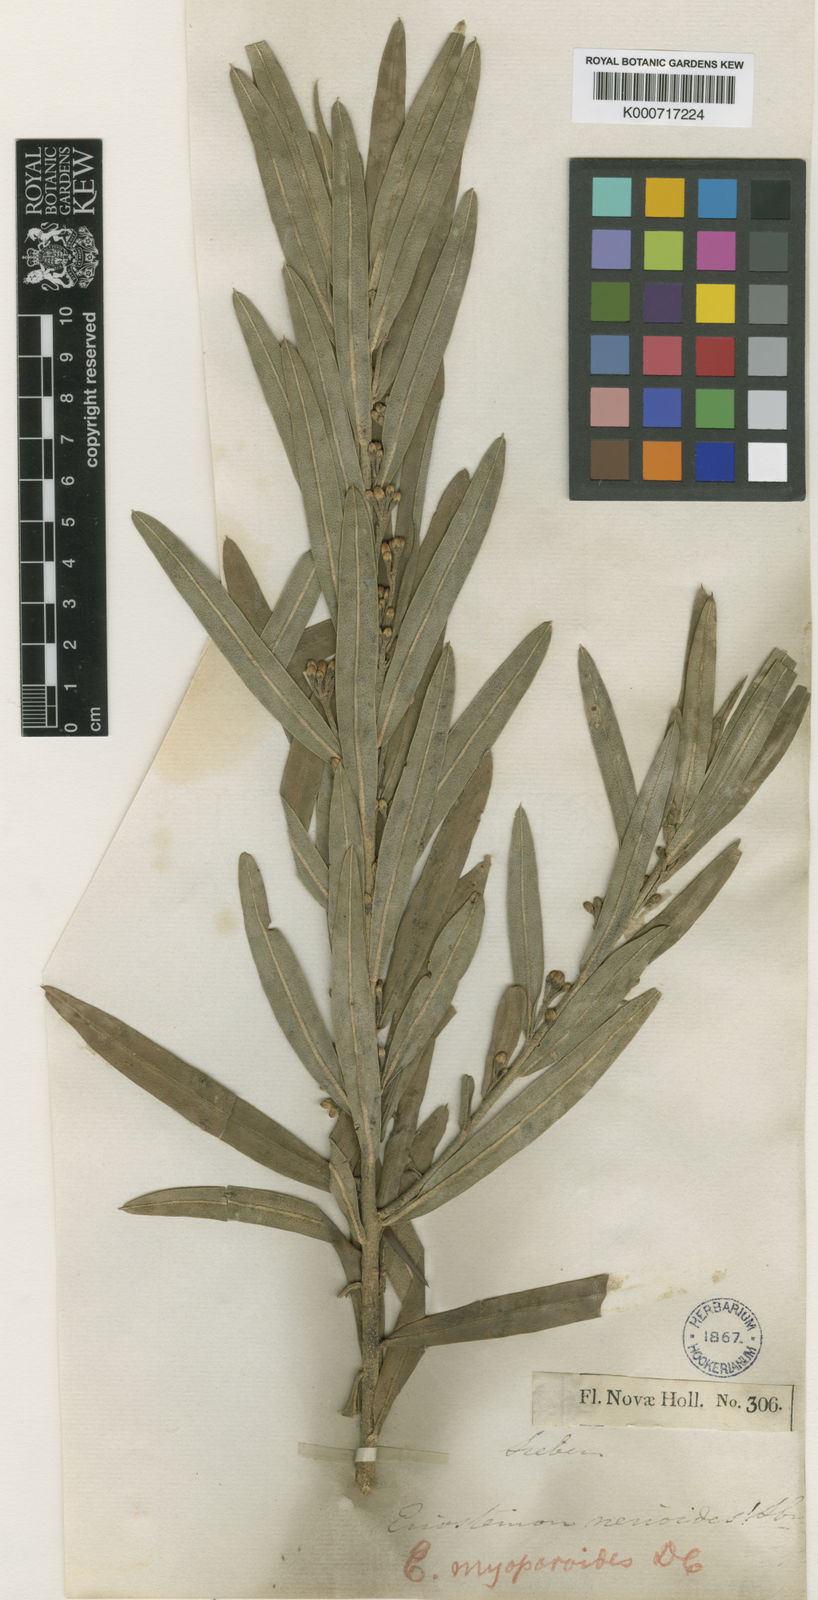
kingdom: Plantae
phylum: Tracheophyta
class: Magnoliopsida
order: Sapindales
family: Rutaceae
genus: Philotheca
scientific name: Philotheca myoporoides
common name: Longleaf waxflower
